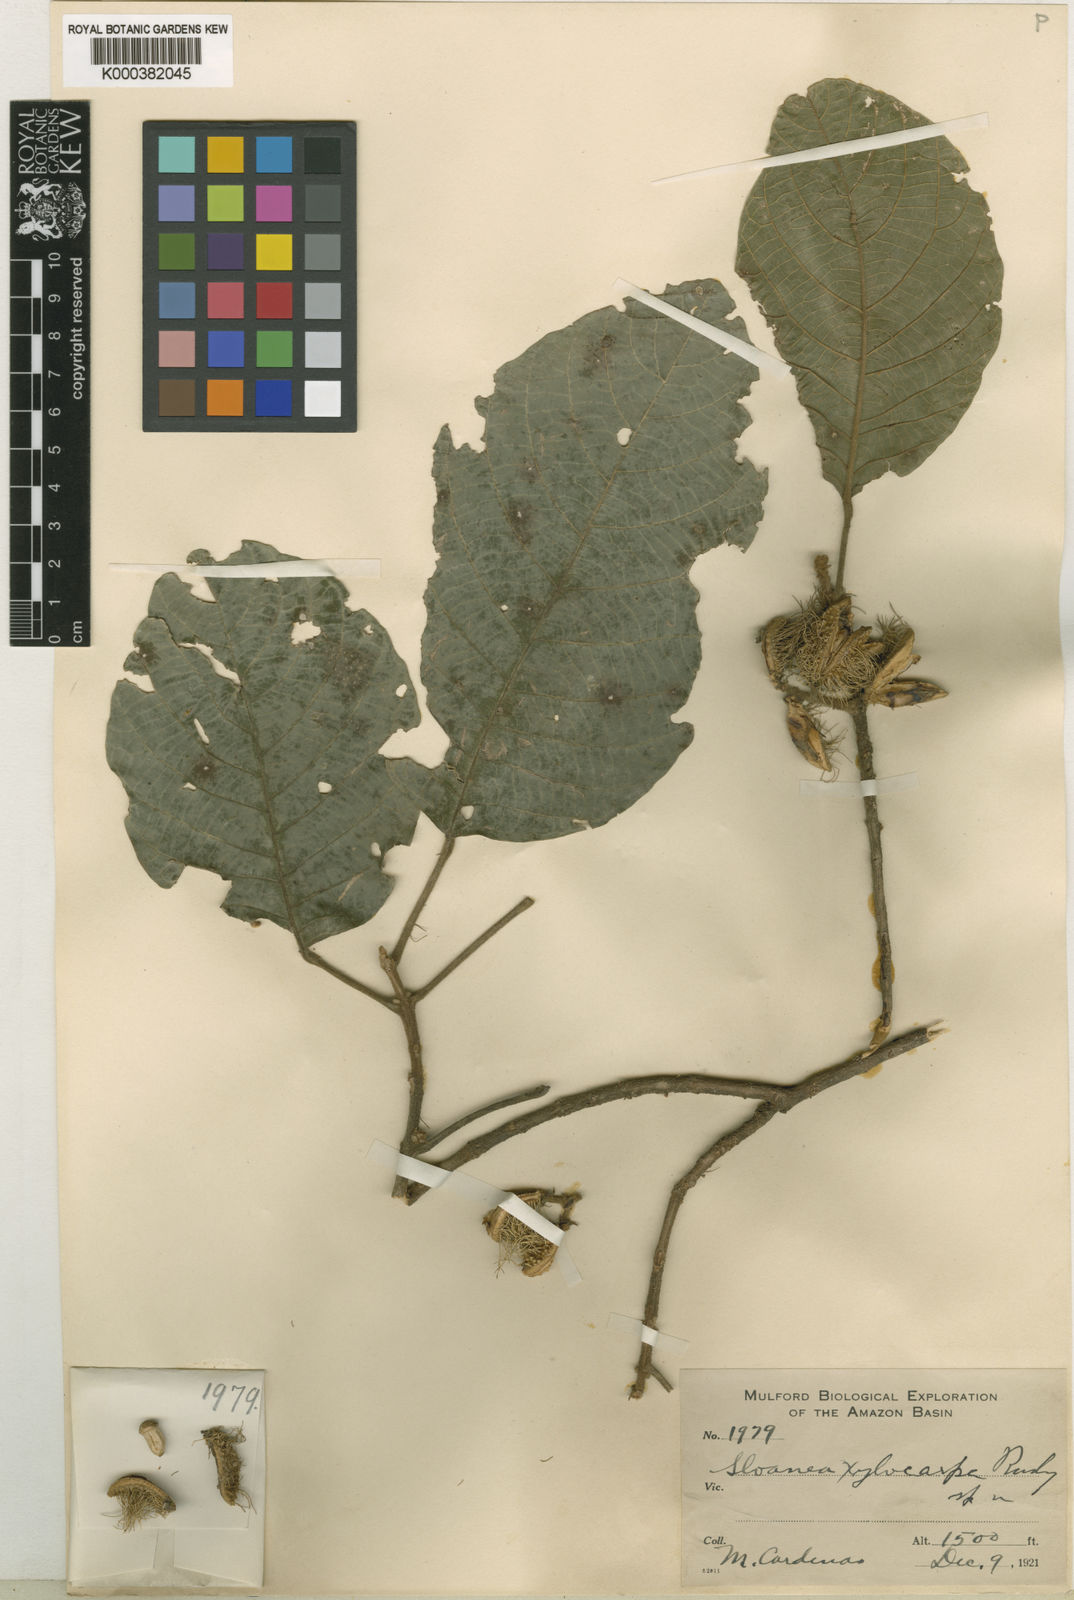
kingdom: Plantae
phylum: Tracheophyta
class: Magnoliopsida
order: Oxalidales
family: Elaeocarpaceae
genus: Sloanea
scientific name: Sloanea pubescens
